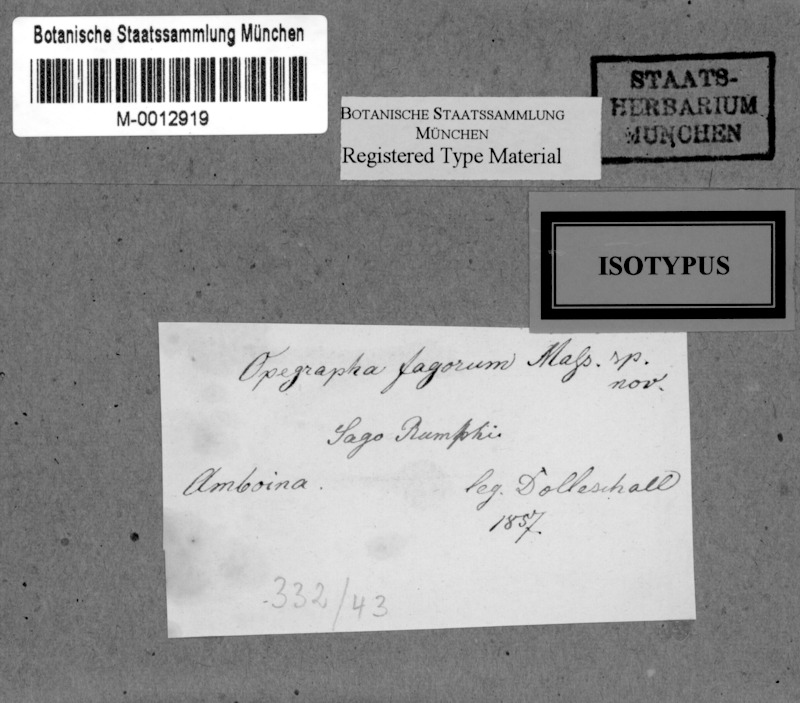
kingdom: Fungi
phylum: Ascomycota
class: Lecanoromycetes
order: Ostropales
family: Graphidaceae
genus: Graphis
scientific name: Graphis
